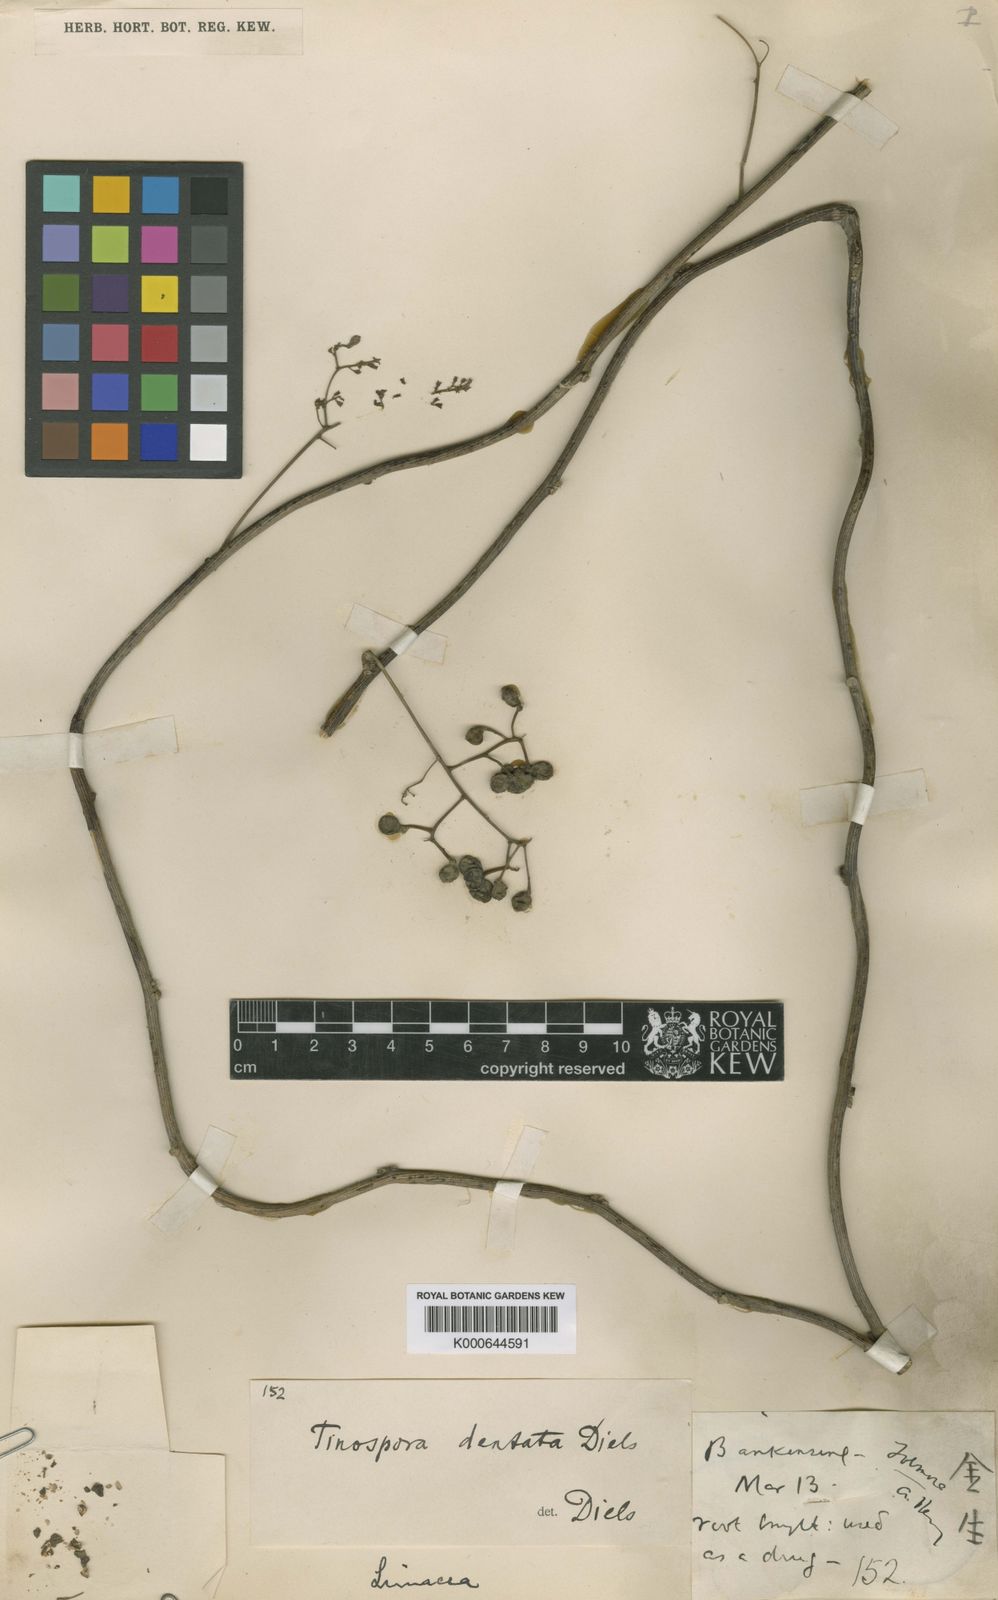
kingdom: Plantae
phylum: Tracheophyta
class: Magnoliopsida
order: Ranunculales
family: Menispermaceae
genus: Paratinospora
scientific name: Paratinospora dentata
